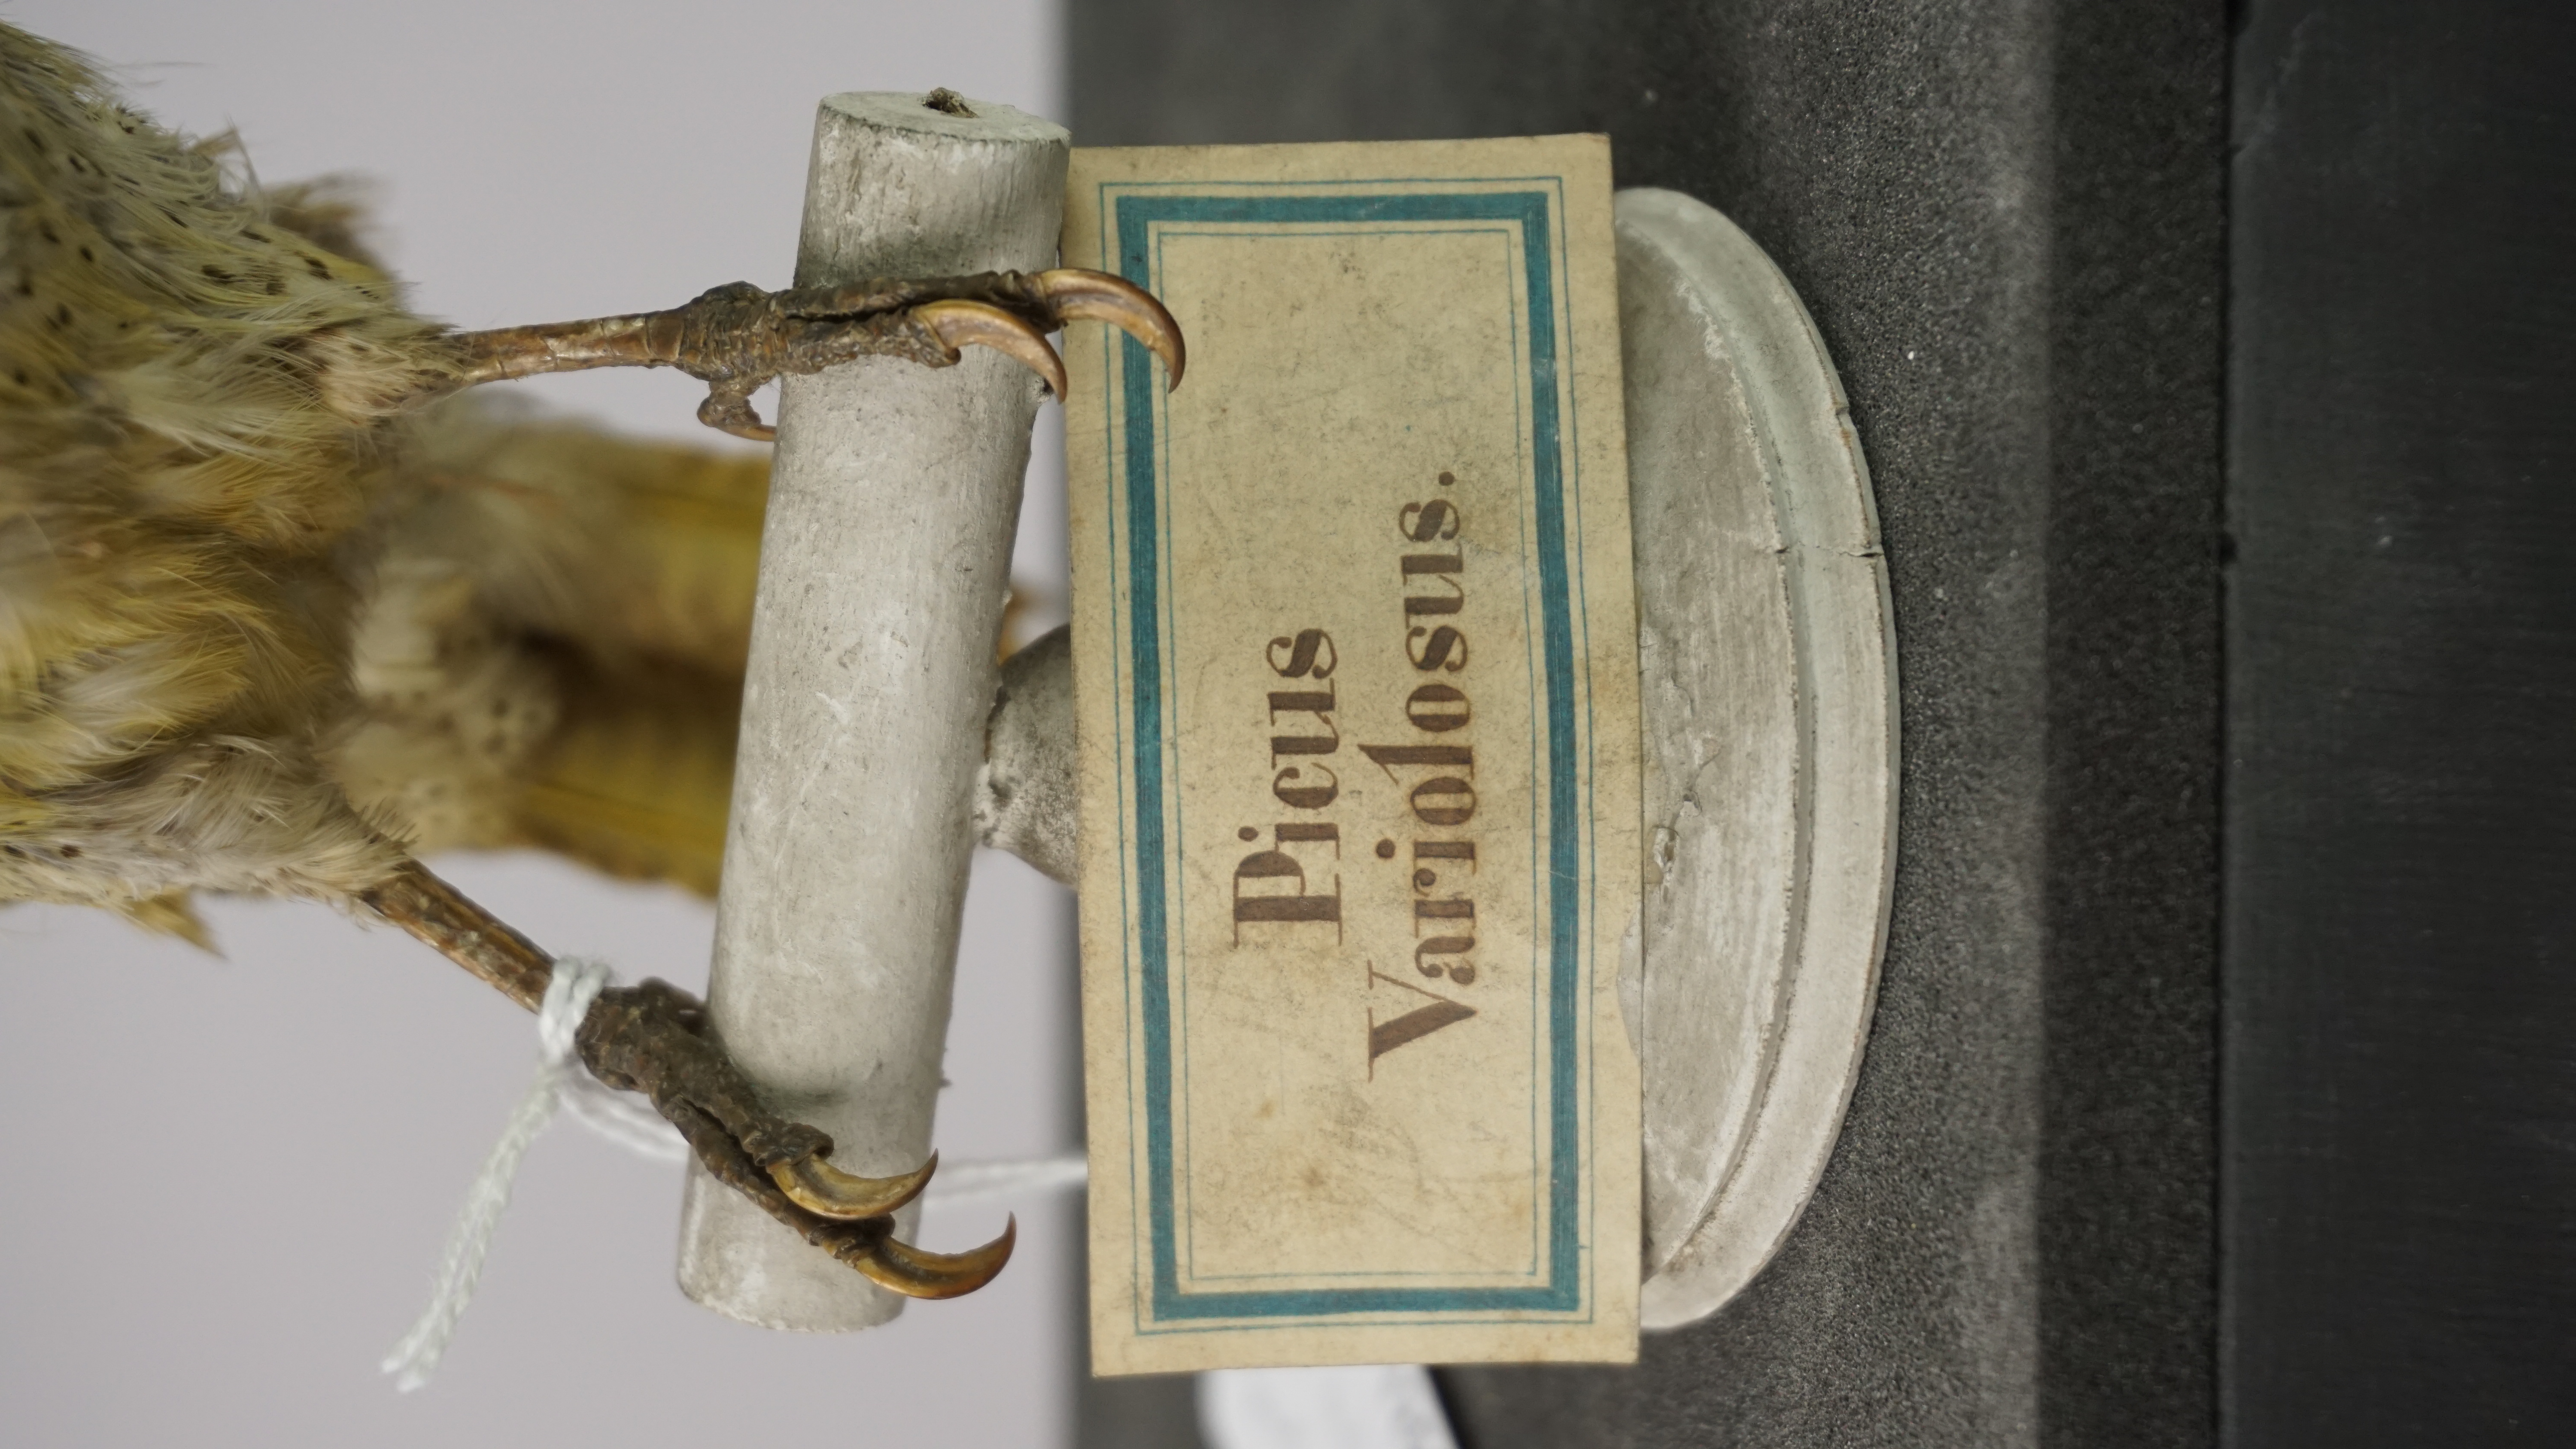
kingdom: Animalia
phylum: Chordata
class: Aves
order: Piciformes
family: Picidae
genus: Campethera
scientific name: Campethera punctuligera
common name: Fine-spotted woodpecker
